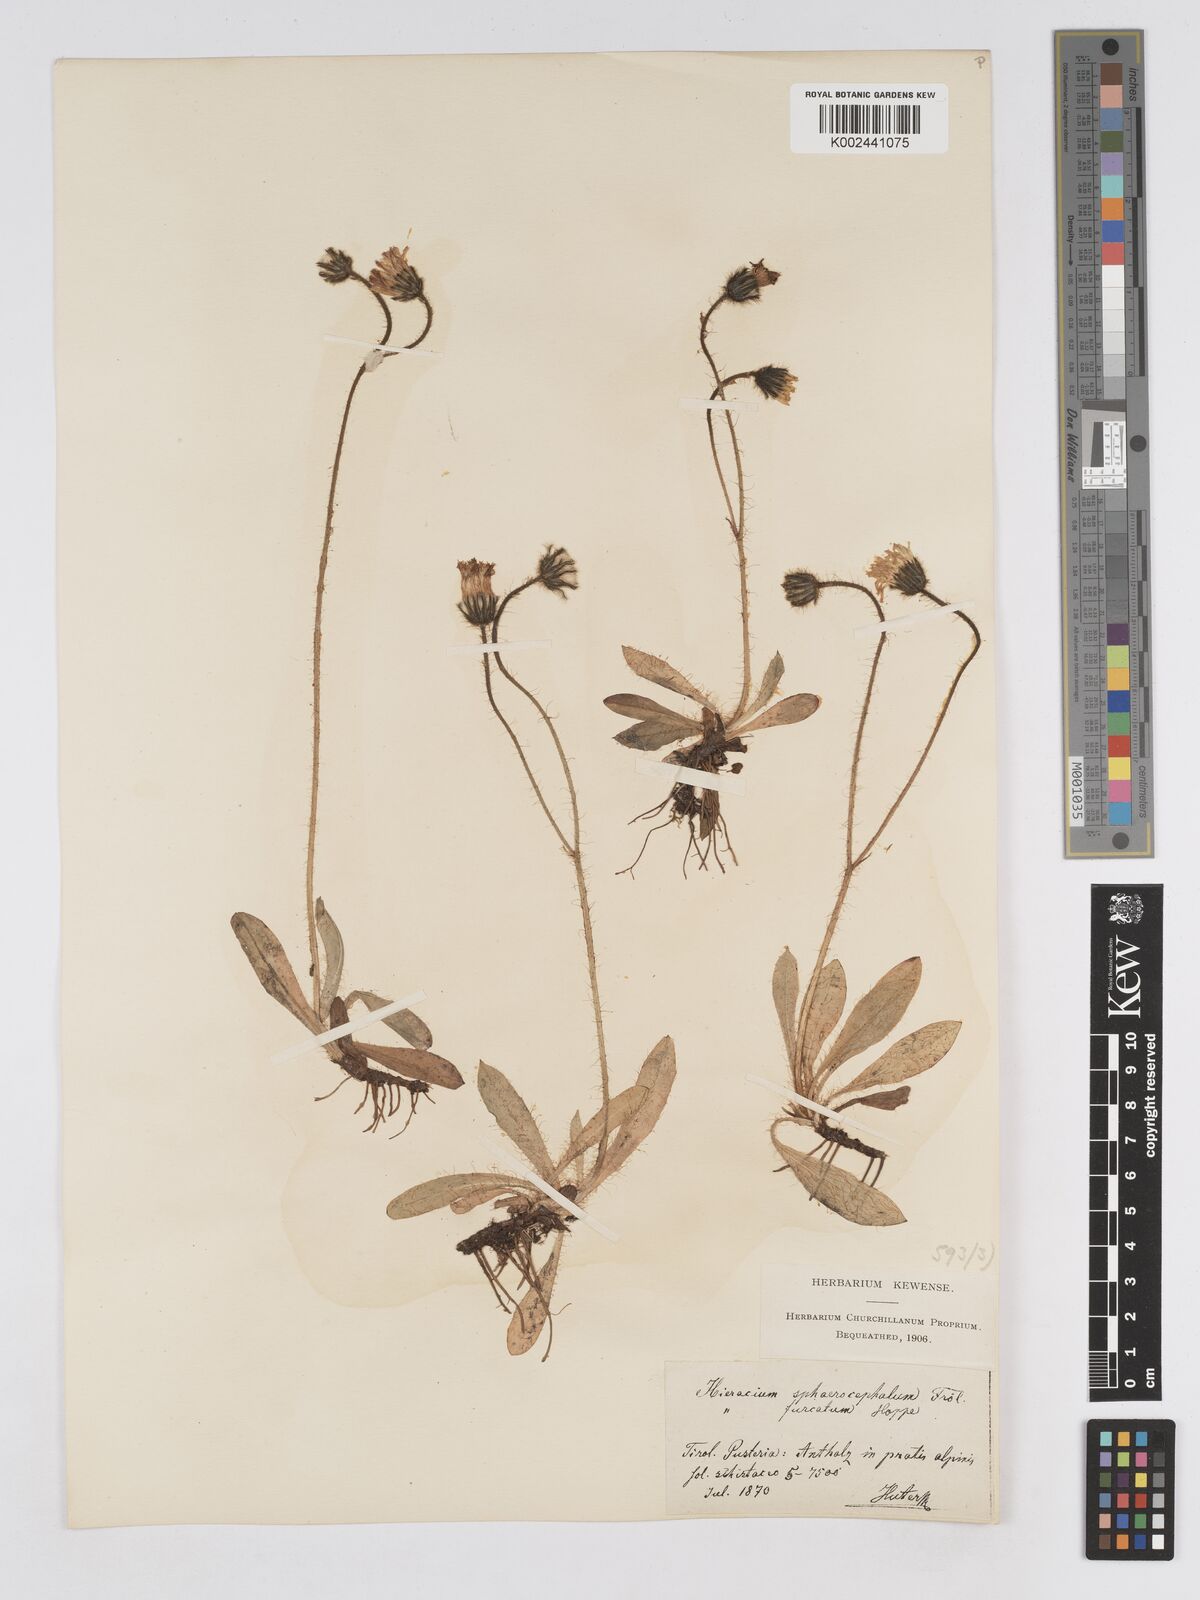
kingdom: Plantae
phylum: Tracheophyta
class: Magnoliopsida
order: Asterales
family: Asteraceae
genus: Pilosella
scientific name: Pilosella sphaerocephala
